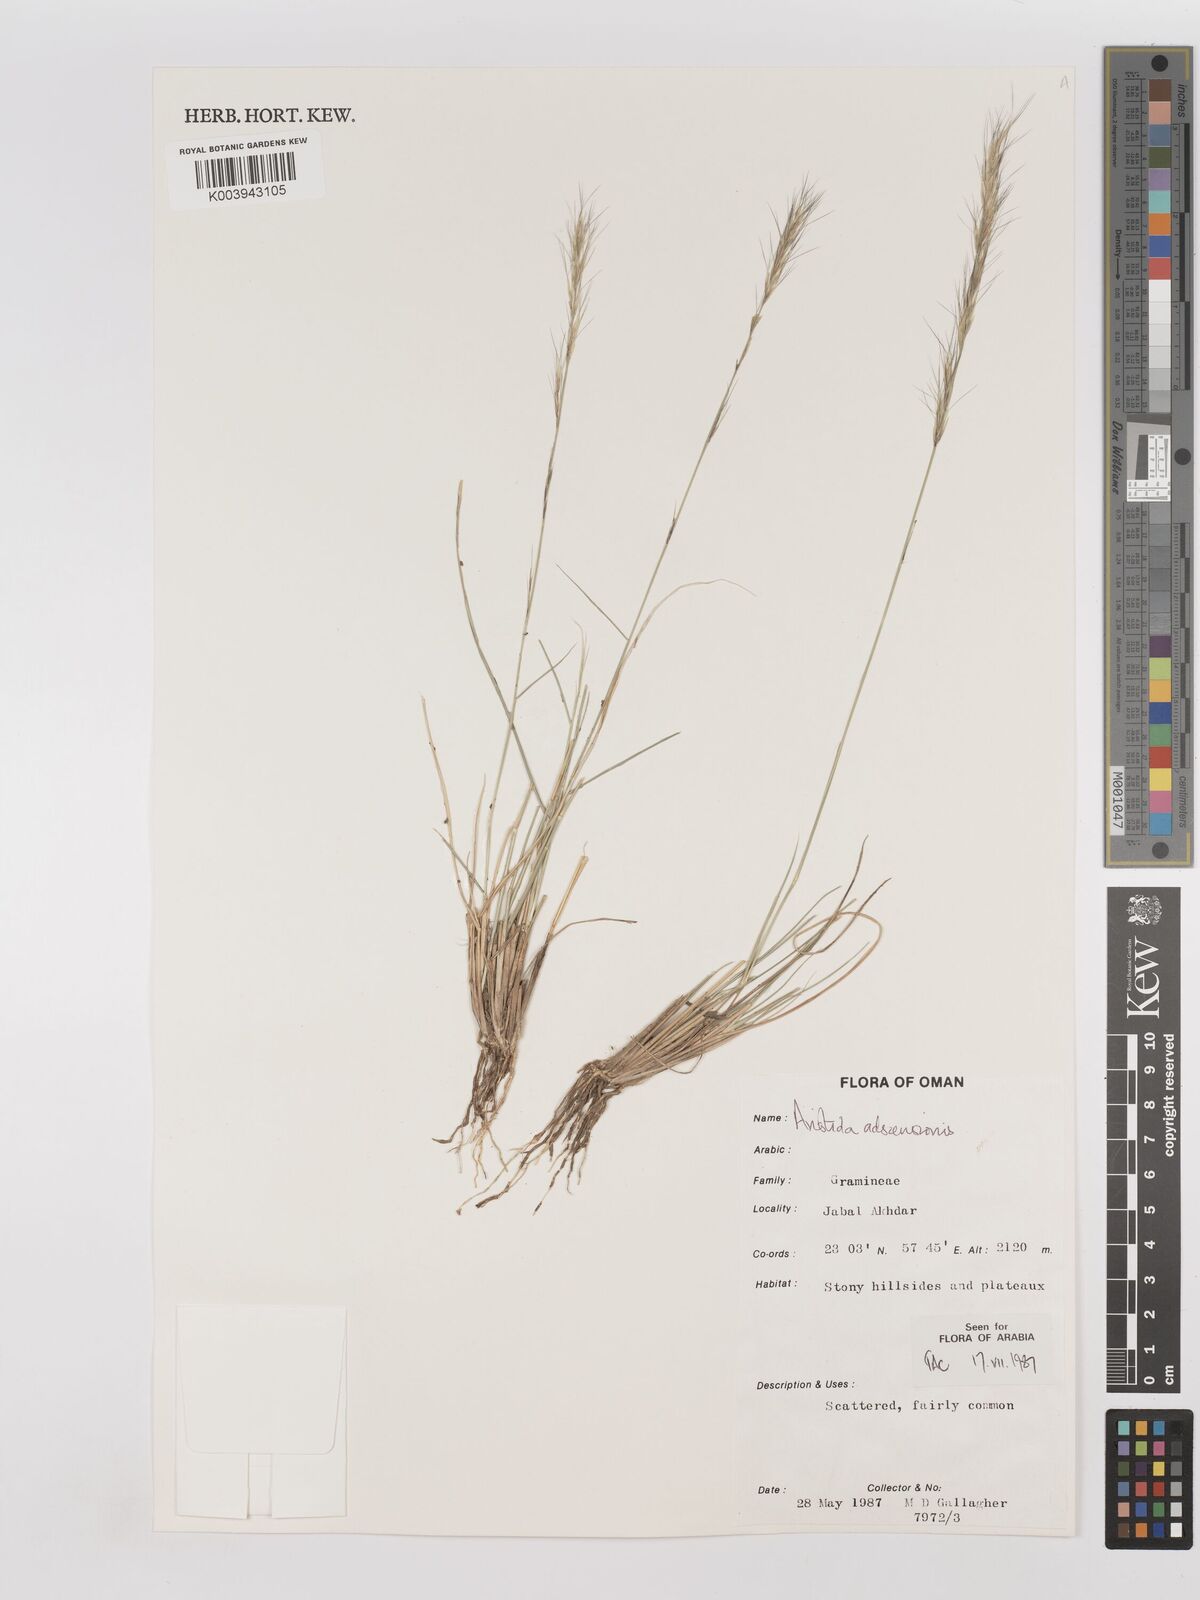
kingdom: Plantae
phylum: Tracheophyta
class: Liliopsida
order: Poales
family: Poaceae
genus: Aristida
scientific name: Aristida adscensionis
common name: Sixweeks threeawn
